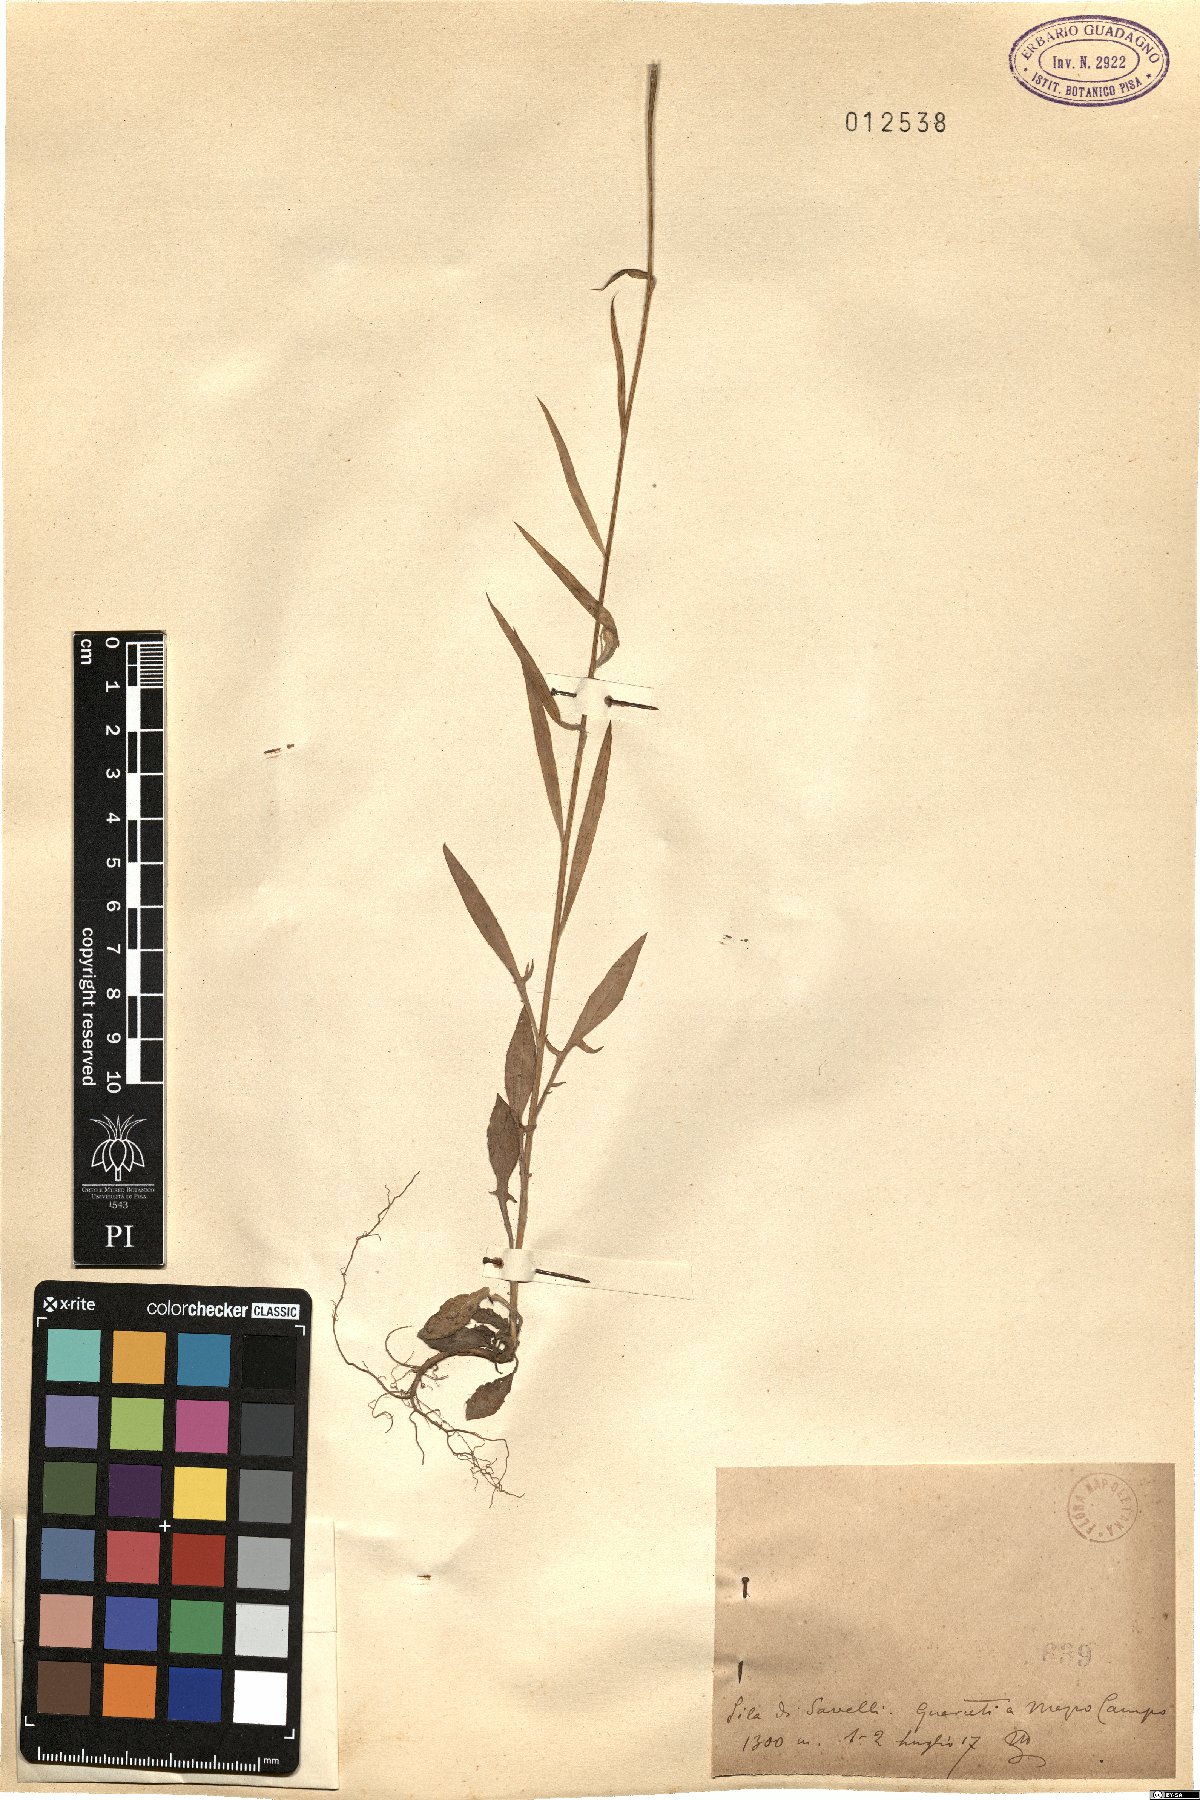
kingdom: Plantae
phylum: Tracheophyta
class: Magnoliopsida
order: Asterales
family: Asteraceae
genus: Centaurea
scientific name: Centaurea
